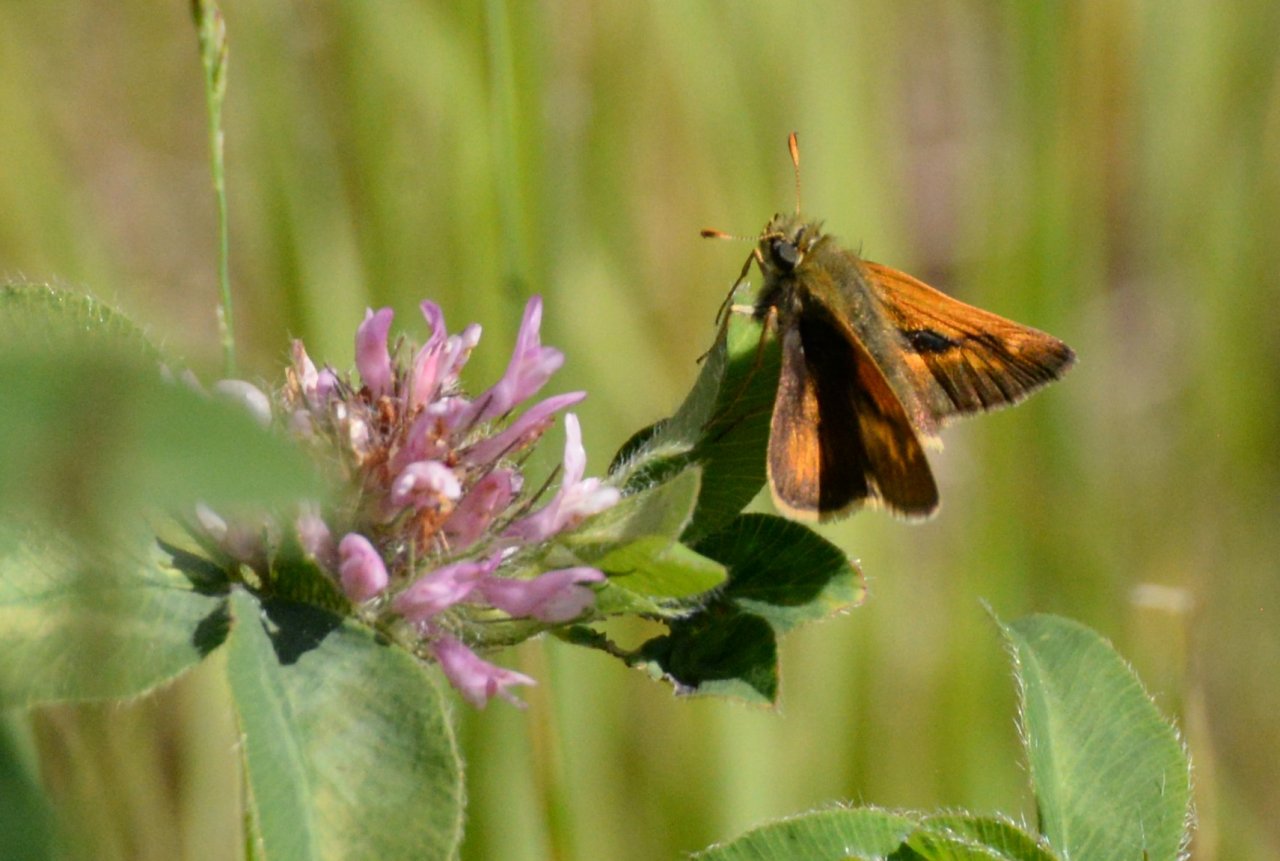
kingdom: Animalia
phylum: Arthropoda
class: Insecta
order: Lepidoptera
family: Hesperiidae
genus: Polites
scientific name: Polites
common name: Long Dash Skipper
